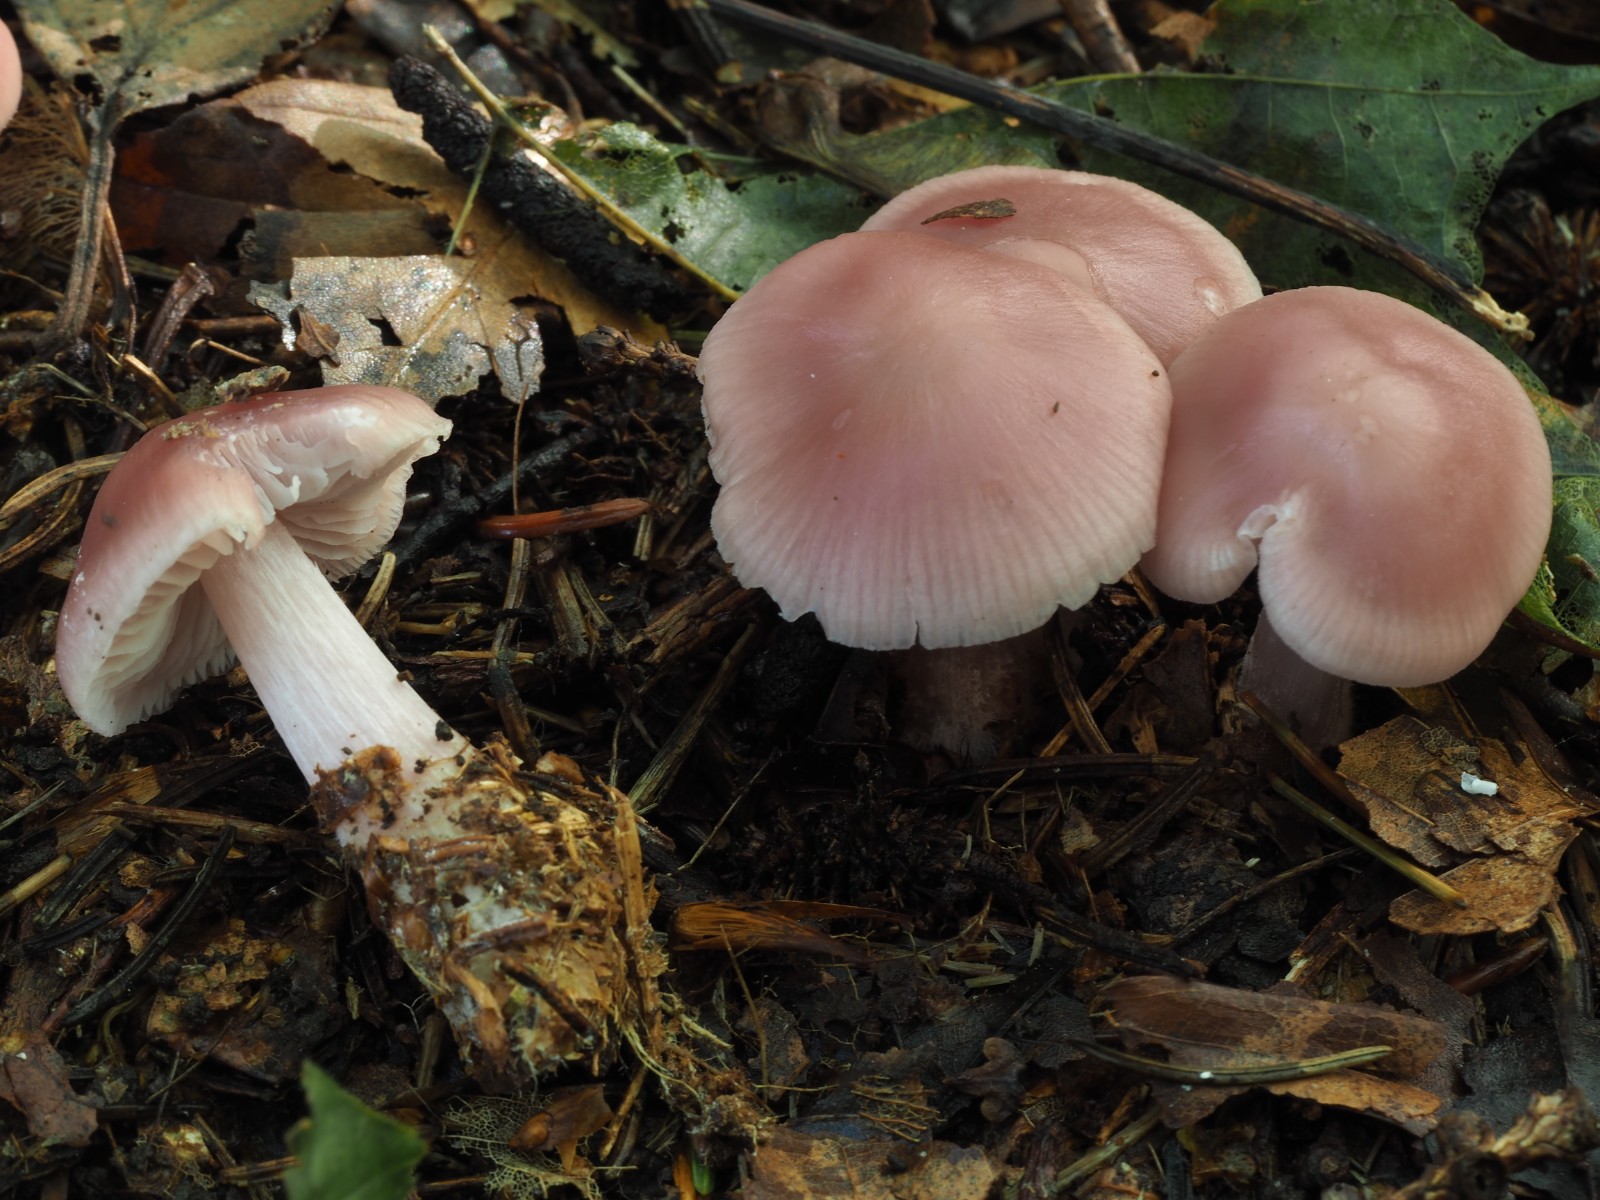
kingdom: Fungi
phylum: Basidiomycota
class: Agaricomycetes
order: Agaricales
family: Mycenaceae
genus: Mycena
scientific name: Mycena rosea
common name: rosa huesvamp
